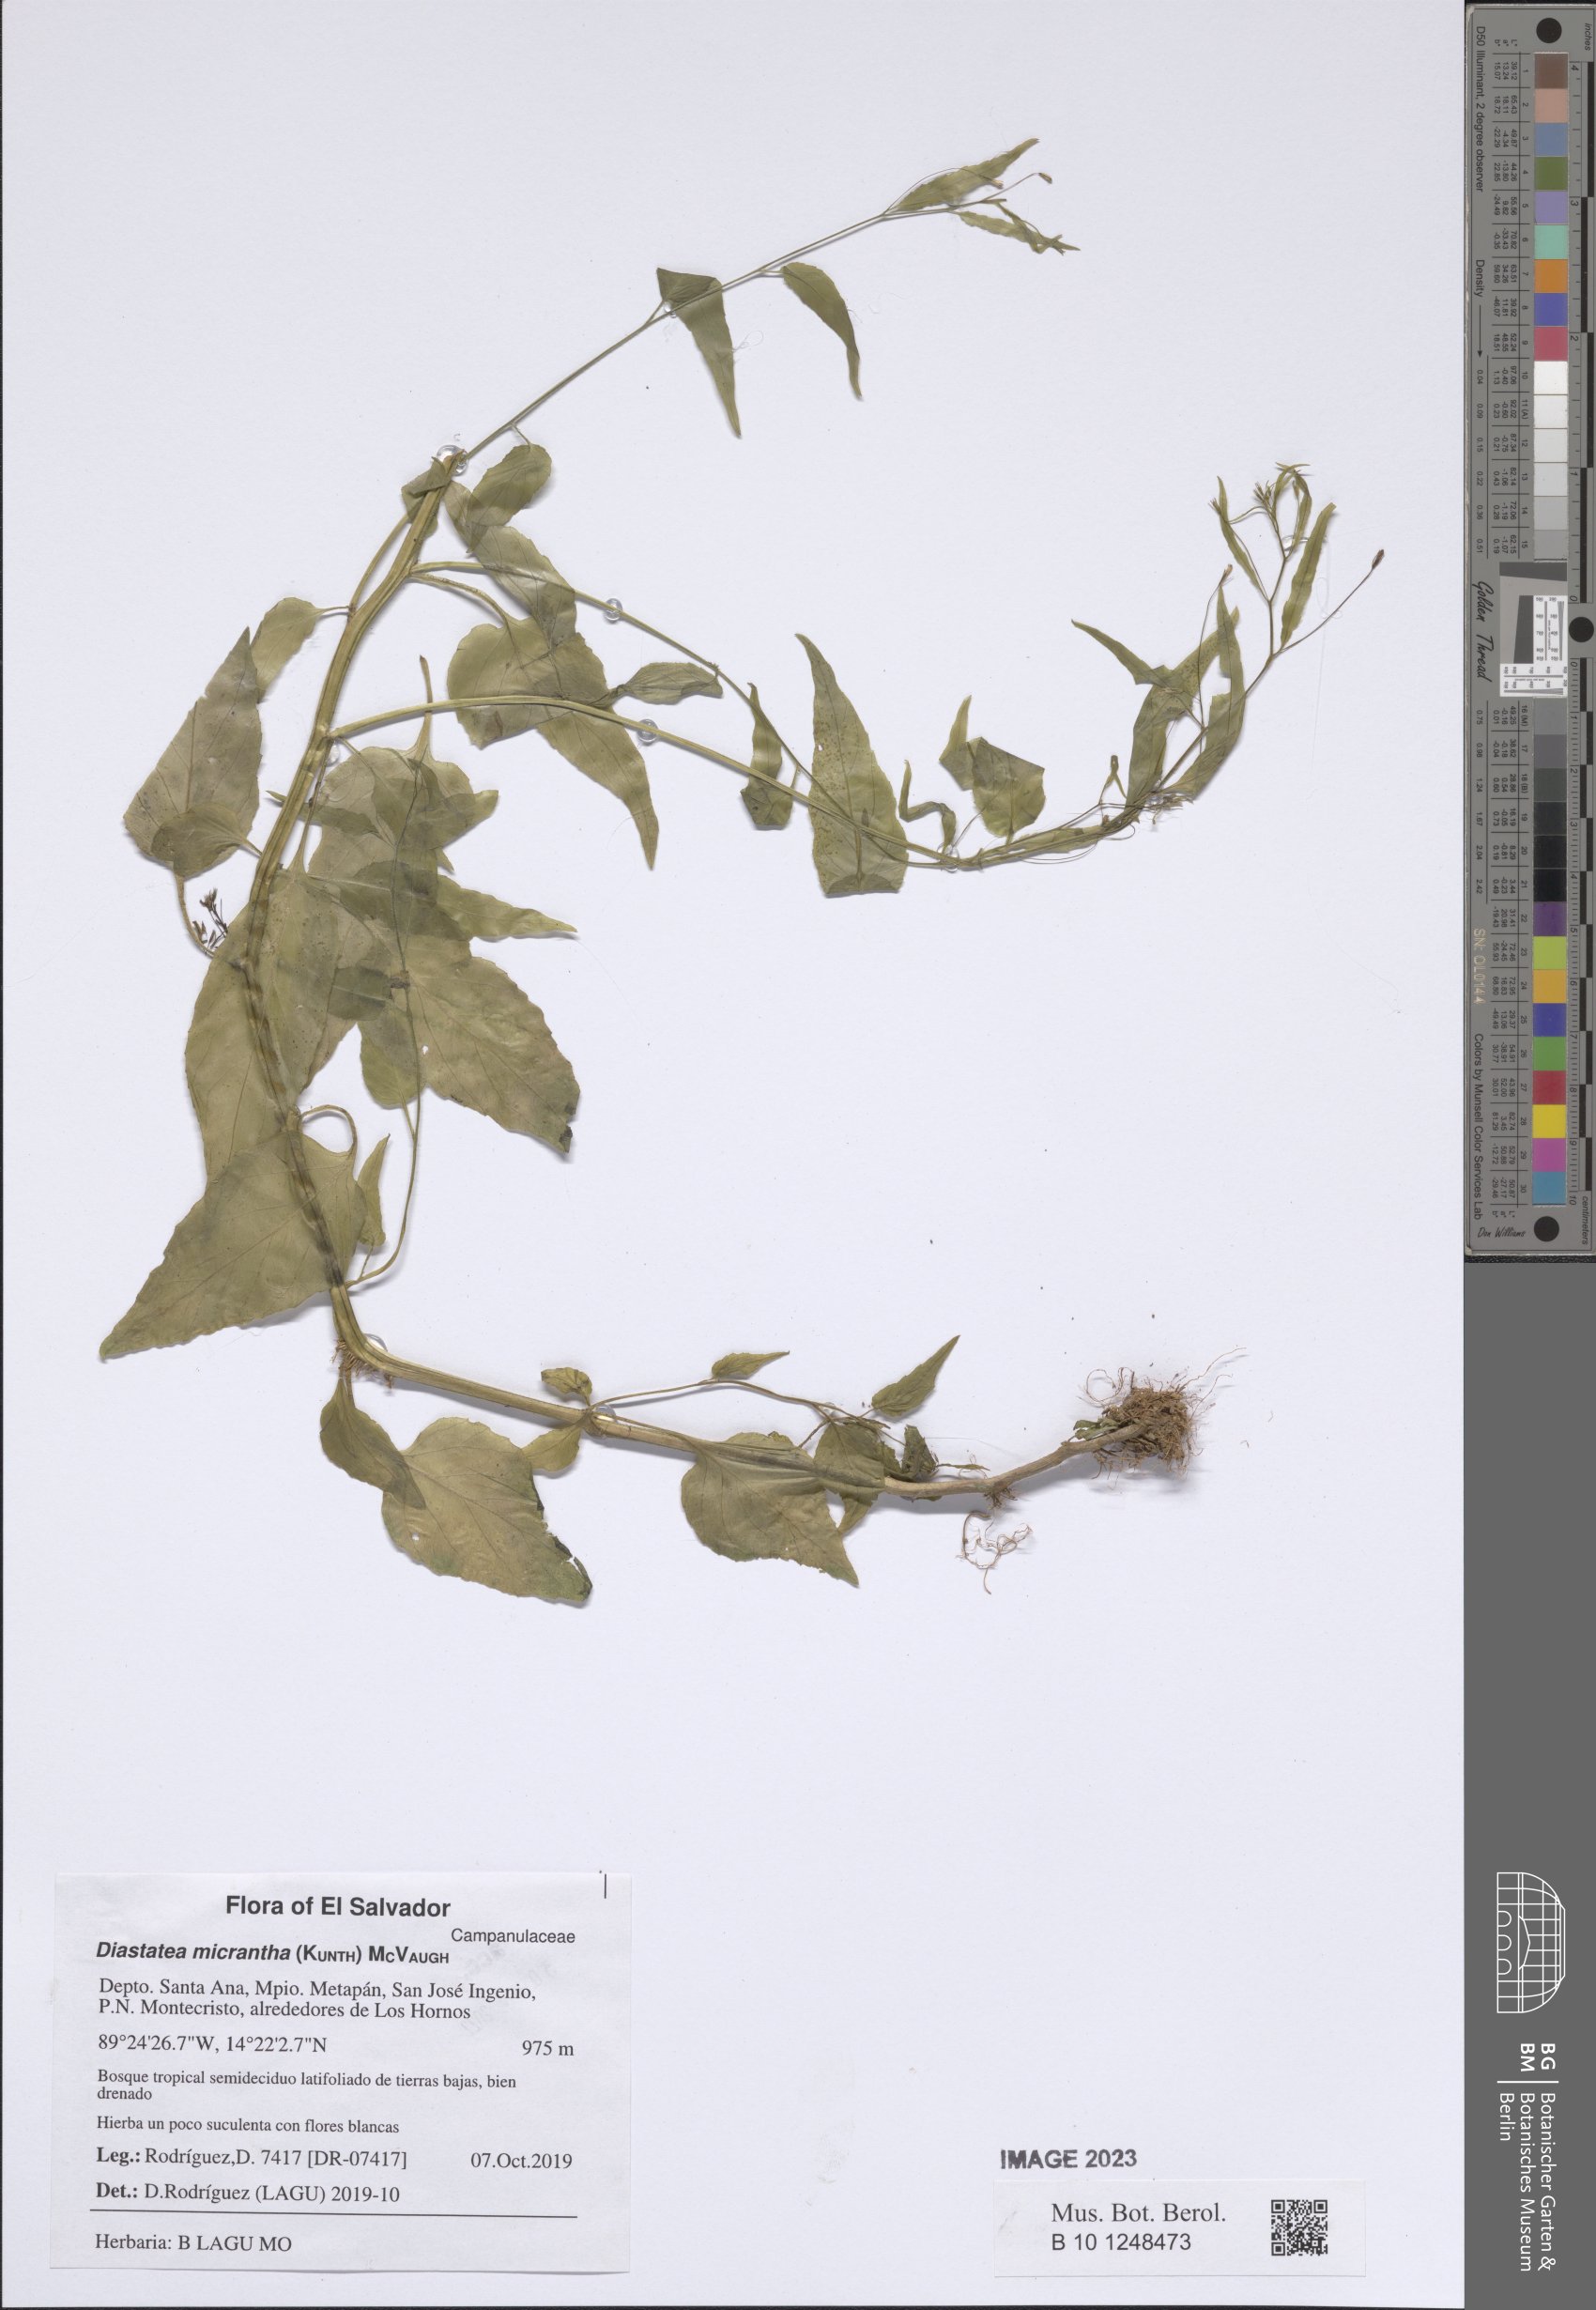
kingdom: Plantae
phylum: Tracheophyta
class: Magnoliopsida
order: Asterales
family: Campanulaceae
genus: Diastatea
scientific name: Diastatea micrantha
